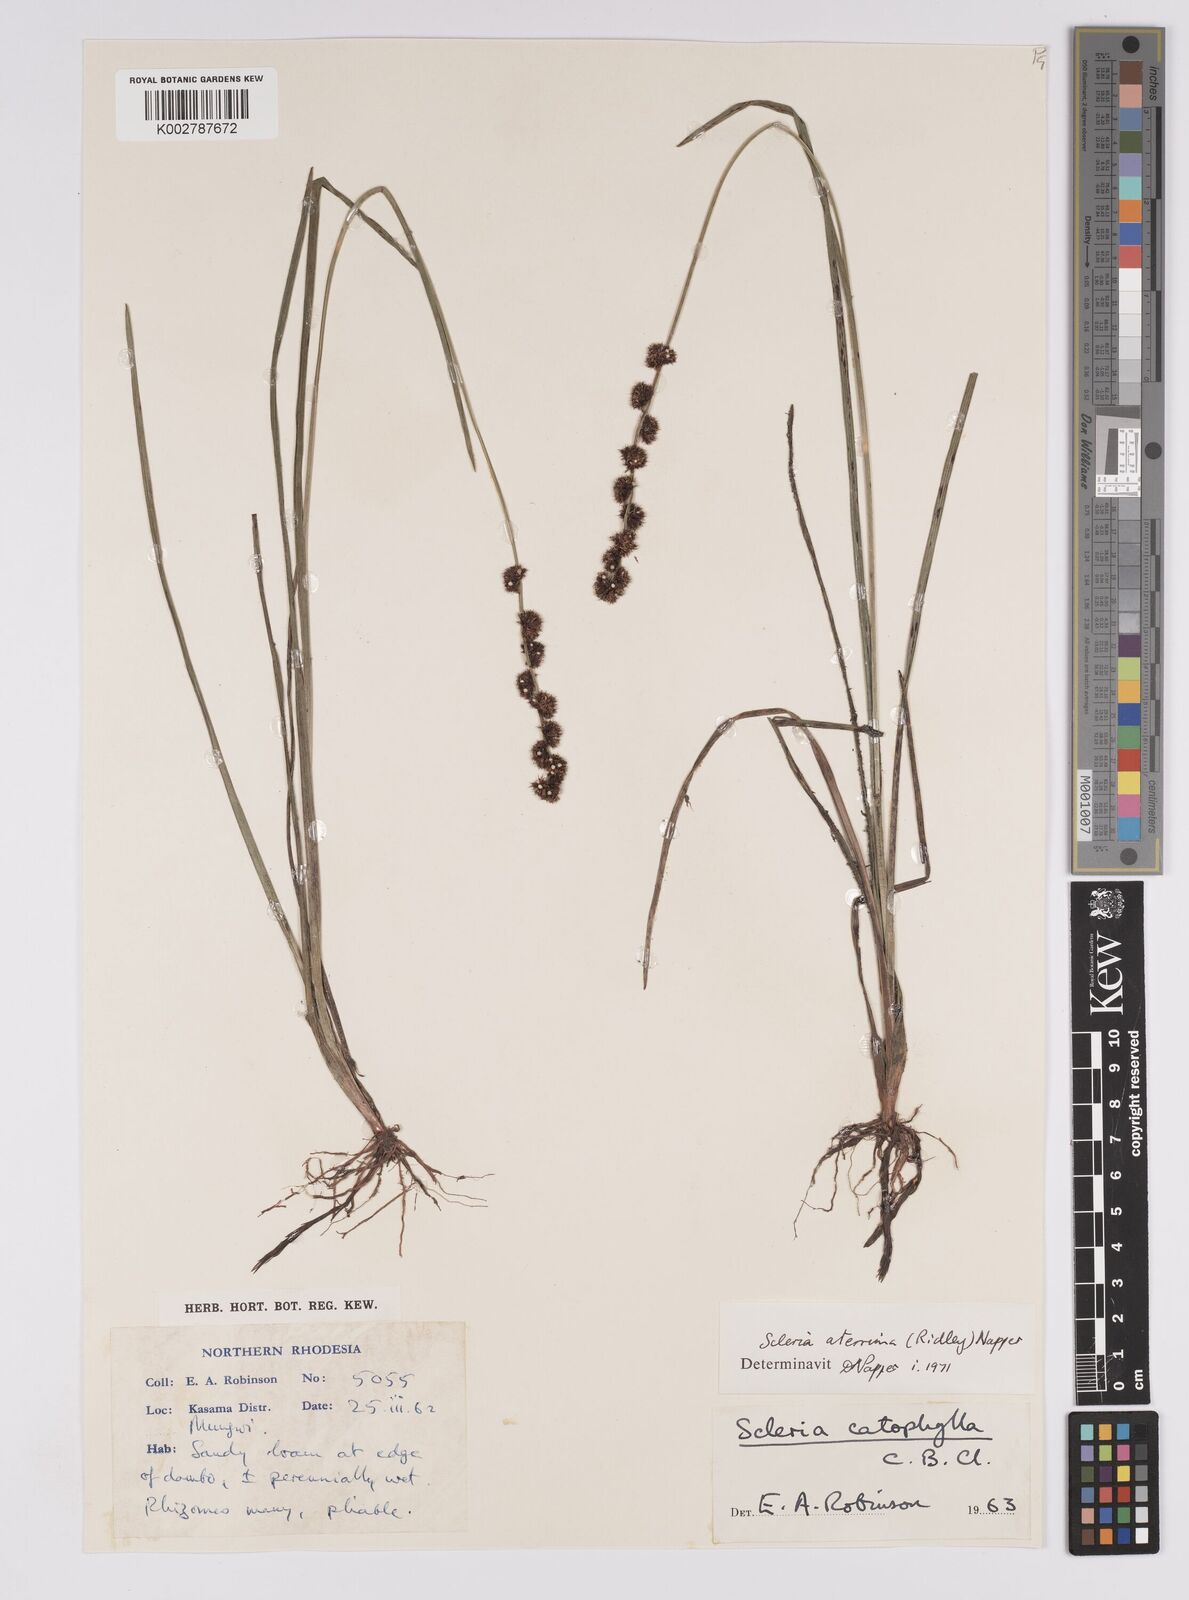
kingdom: Plantae
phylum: Tracheophyta
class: Liliopsida
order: Poales
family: Cyperaceae
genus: Scleria
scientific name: Scleria catophylla
